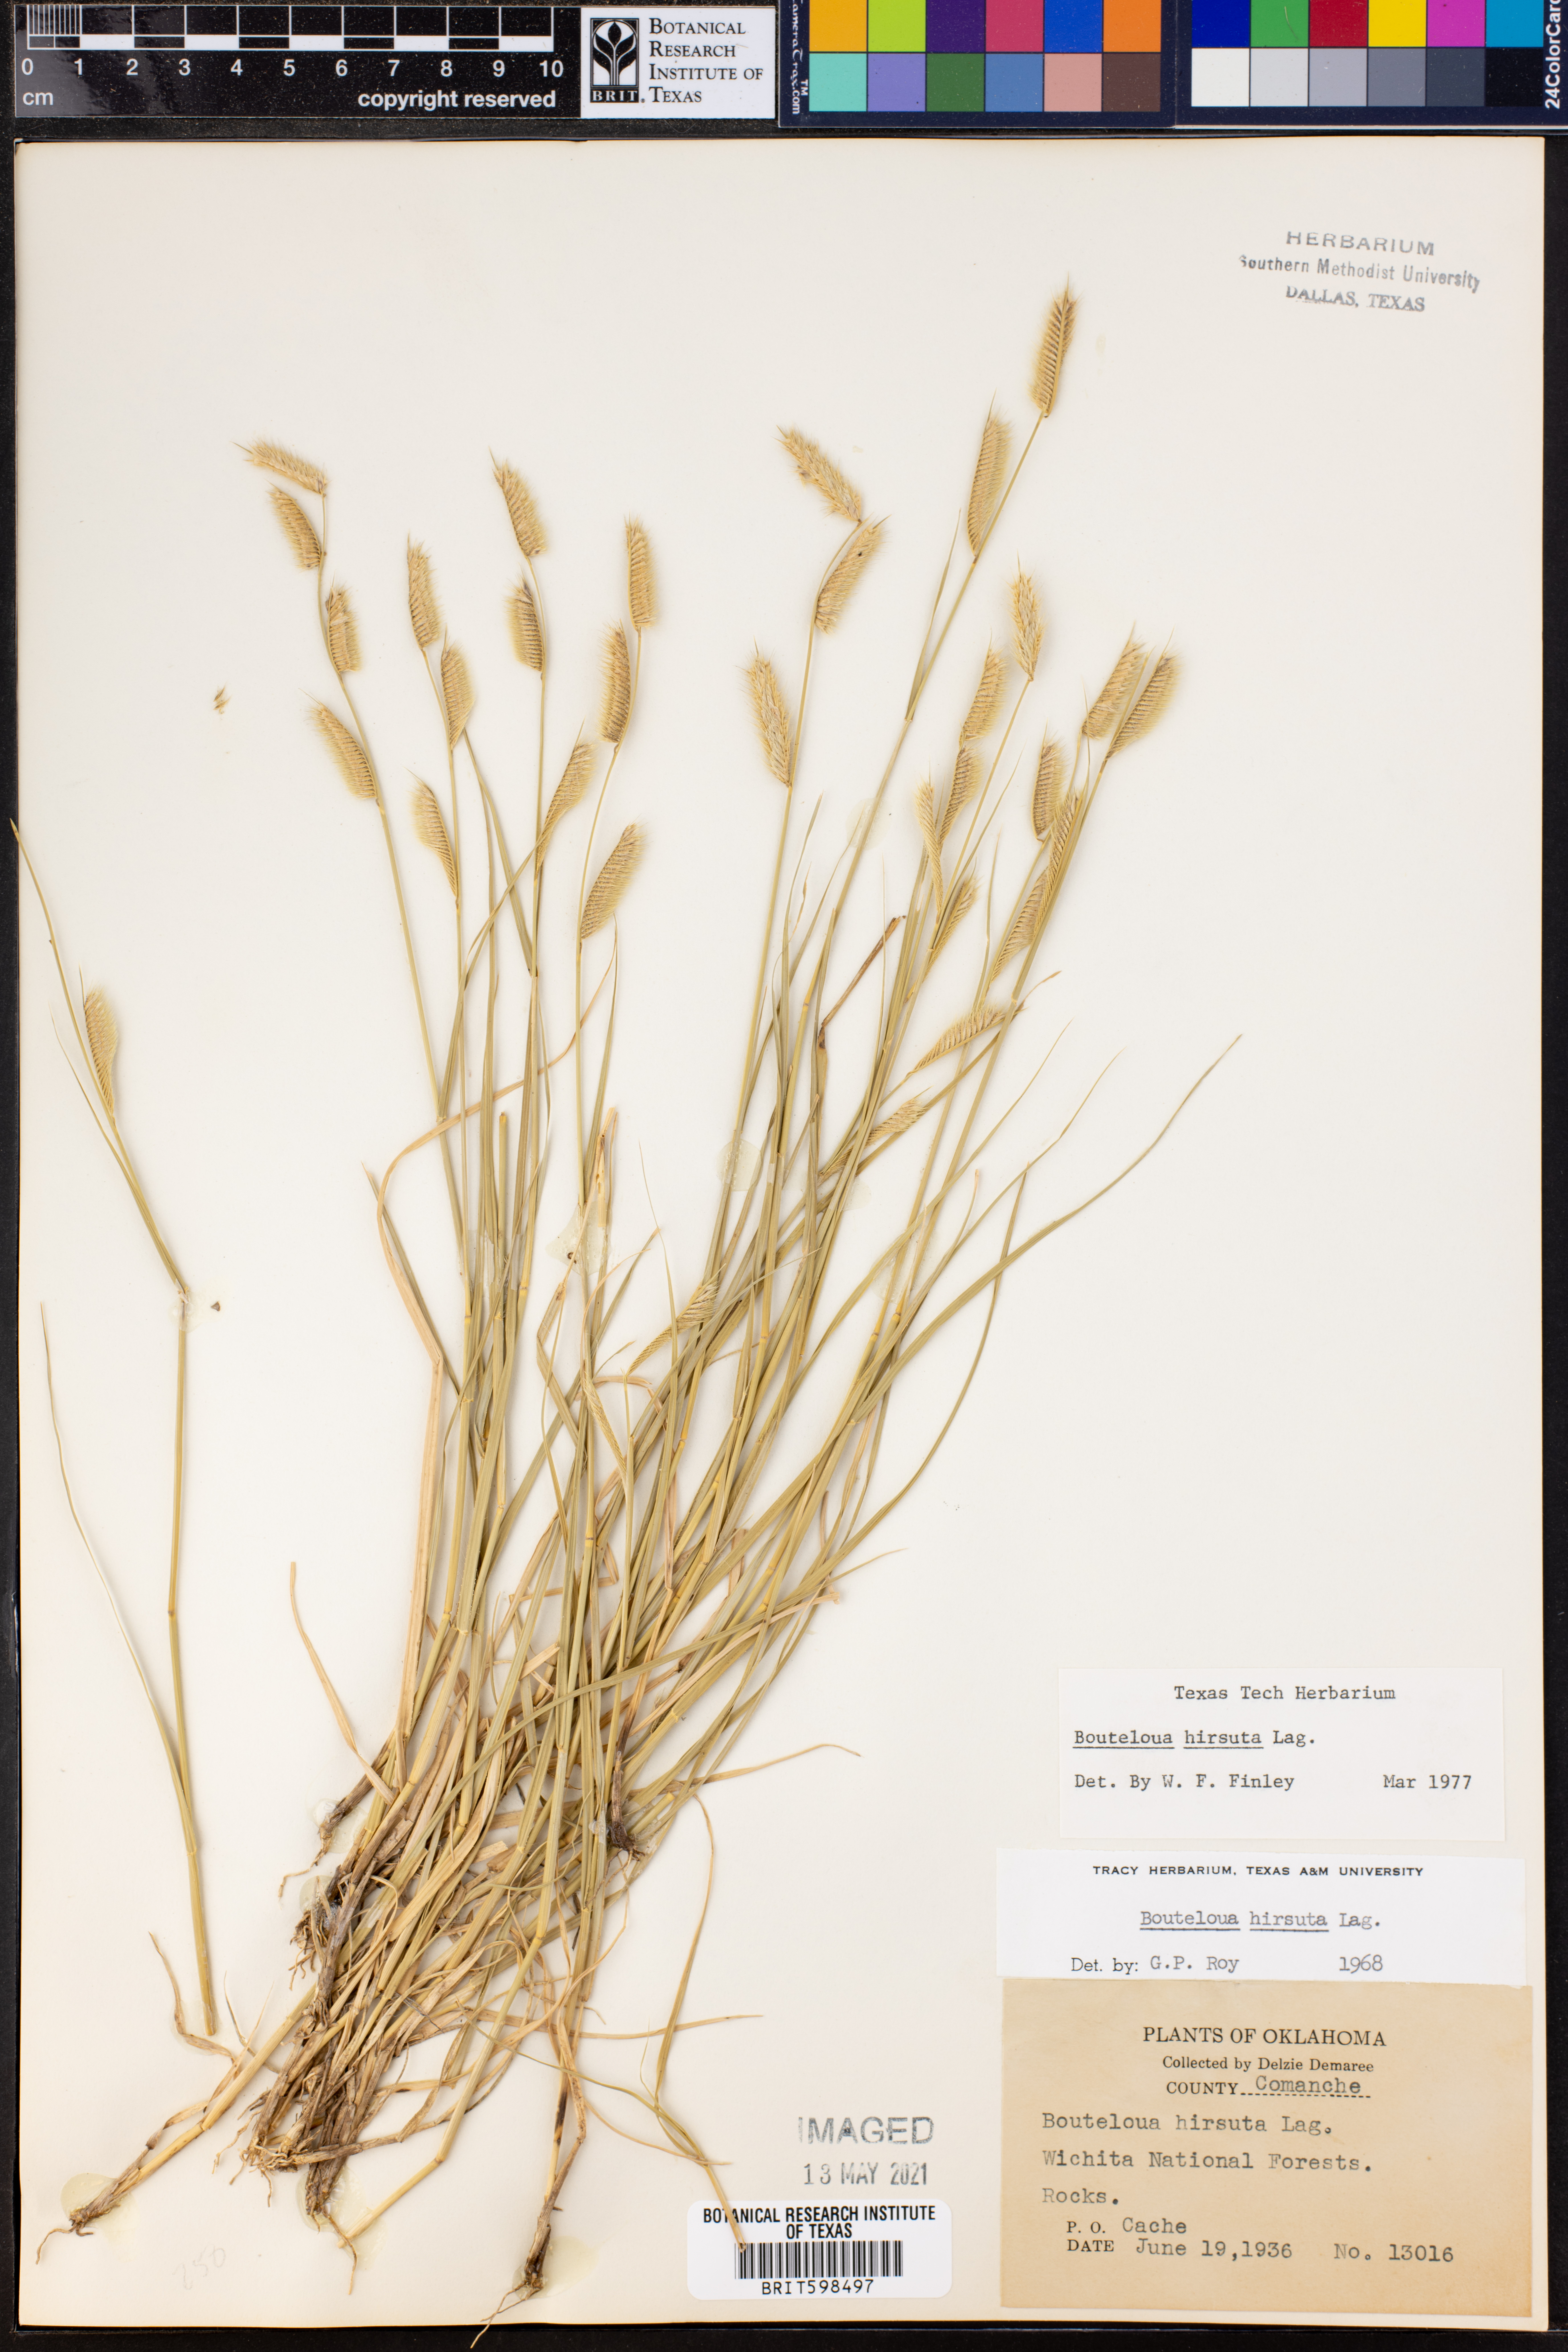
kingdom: Plantae
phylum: Tracheophyta
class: Liliopsida
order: Poales
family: Poaceae
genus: Bouteloua
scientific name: Bouteloua hirsuta
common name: Hairy grama
